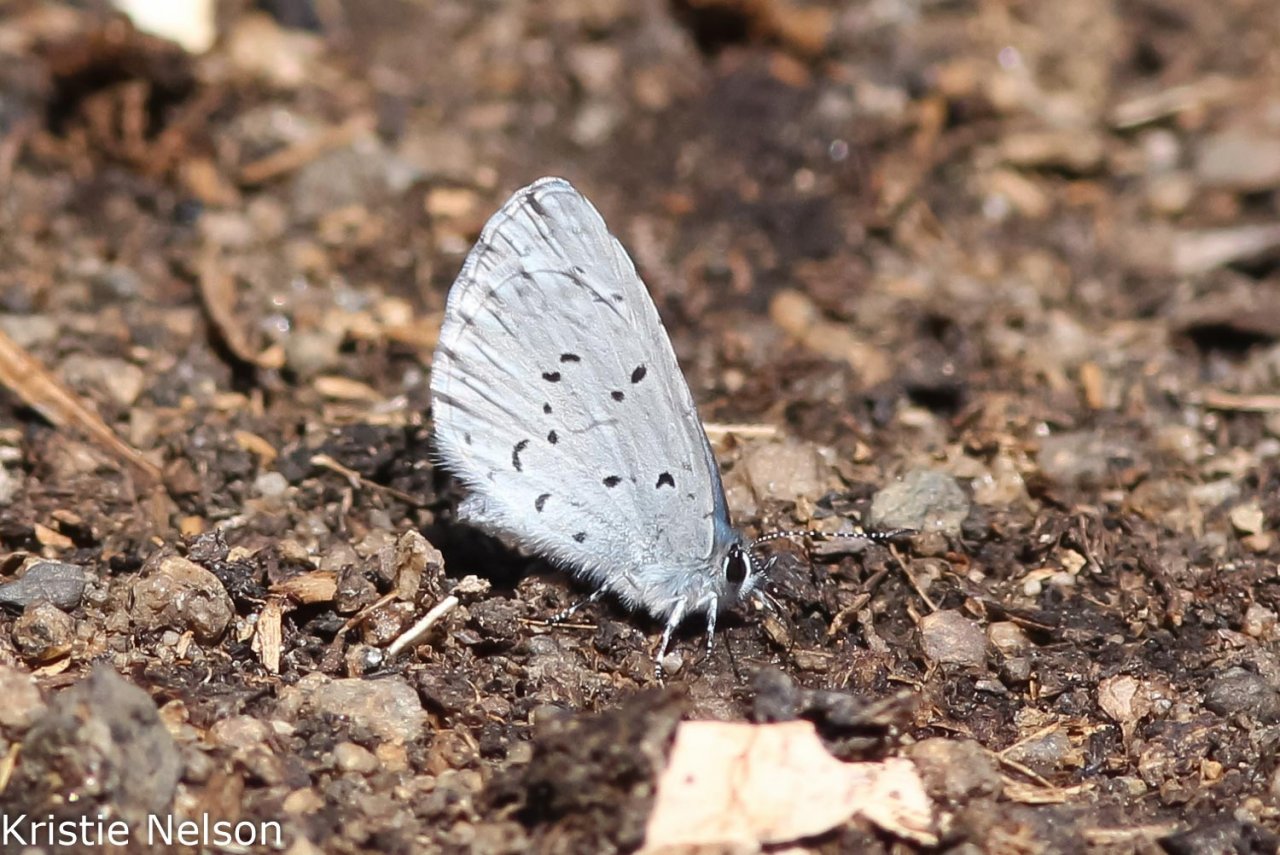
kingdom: Animalia
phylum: Arthropoda
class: Insecta
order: Lepidoptera
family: Lycaenidae
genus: Celastrina
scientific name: Celastrina ladon
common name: Echo Azure
